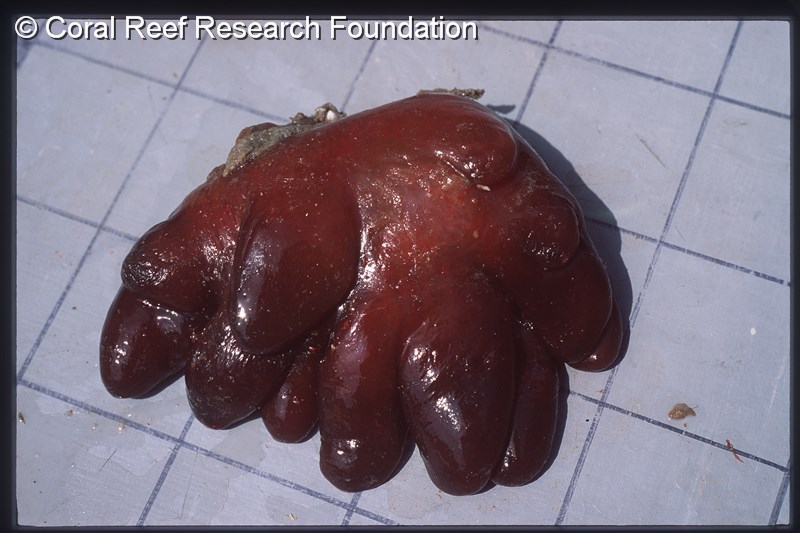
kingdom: Animalia
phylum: Chordata
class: Ascidiacea
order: Aplousobranchia
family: Pseudodistomidae
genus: Pseudodistoma
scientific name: Pseudodistoma
